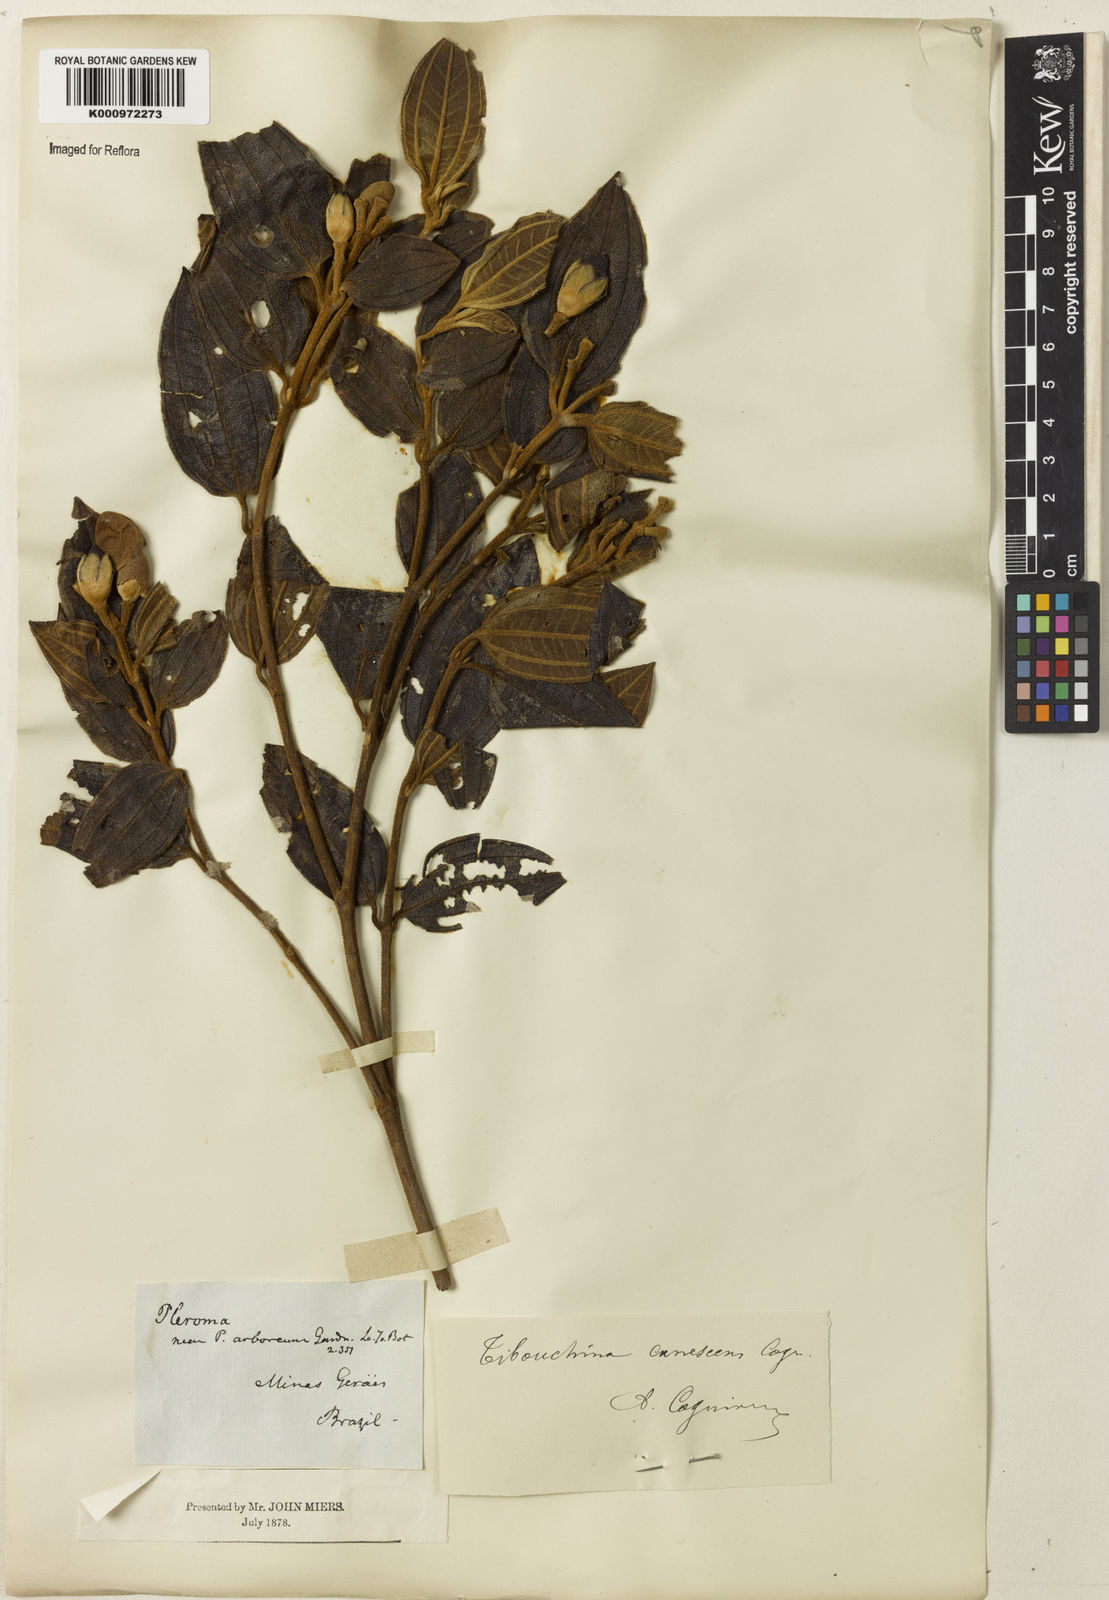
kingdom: Plantae
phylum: Tracheophyta
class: Magnoliopsida
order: Myrtales
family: Melastomataceae
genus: Pleroma
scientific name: Pleroma canescens
